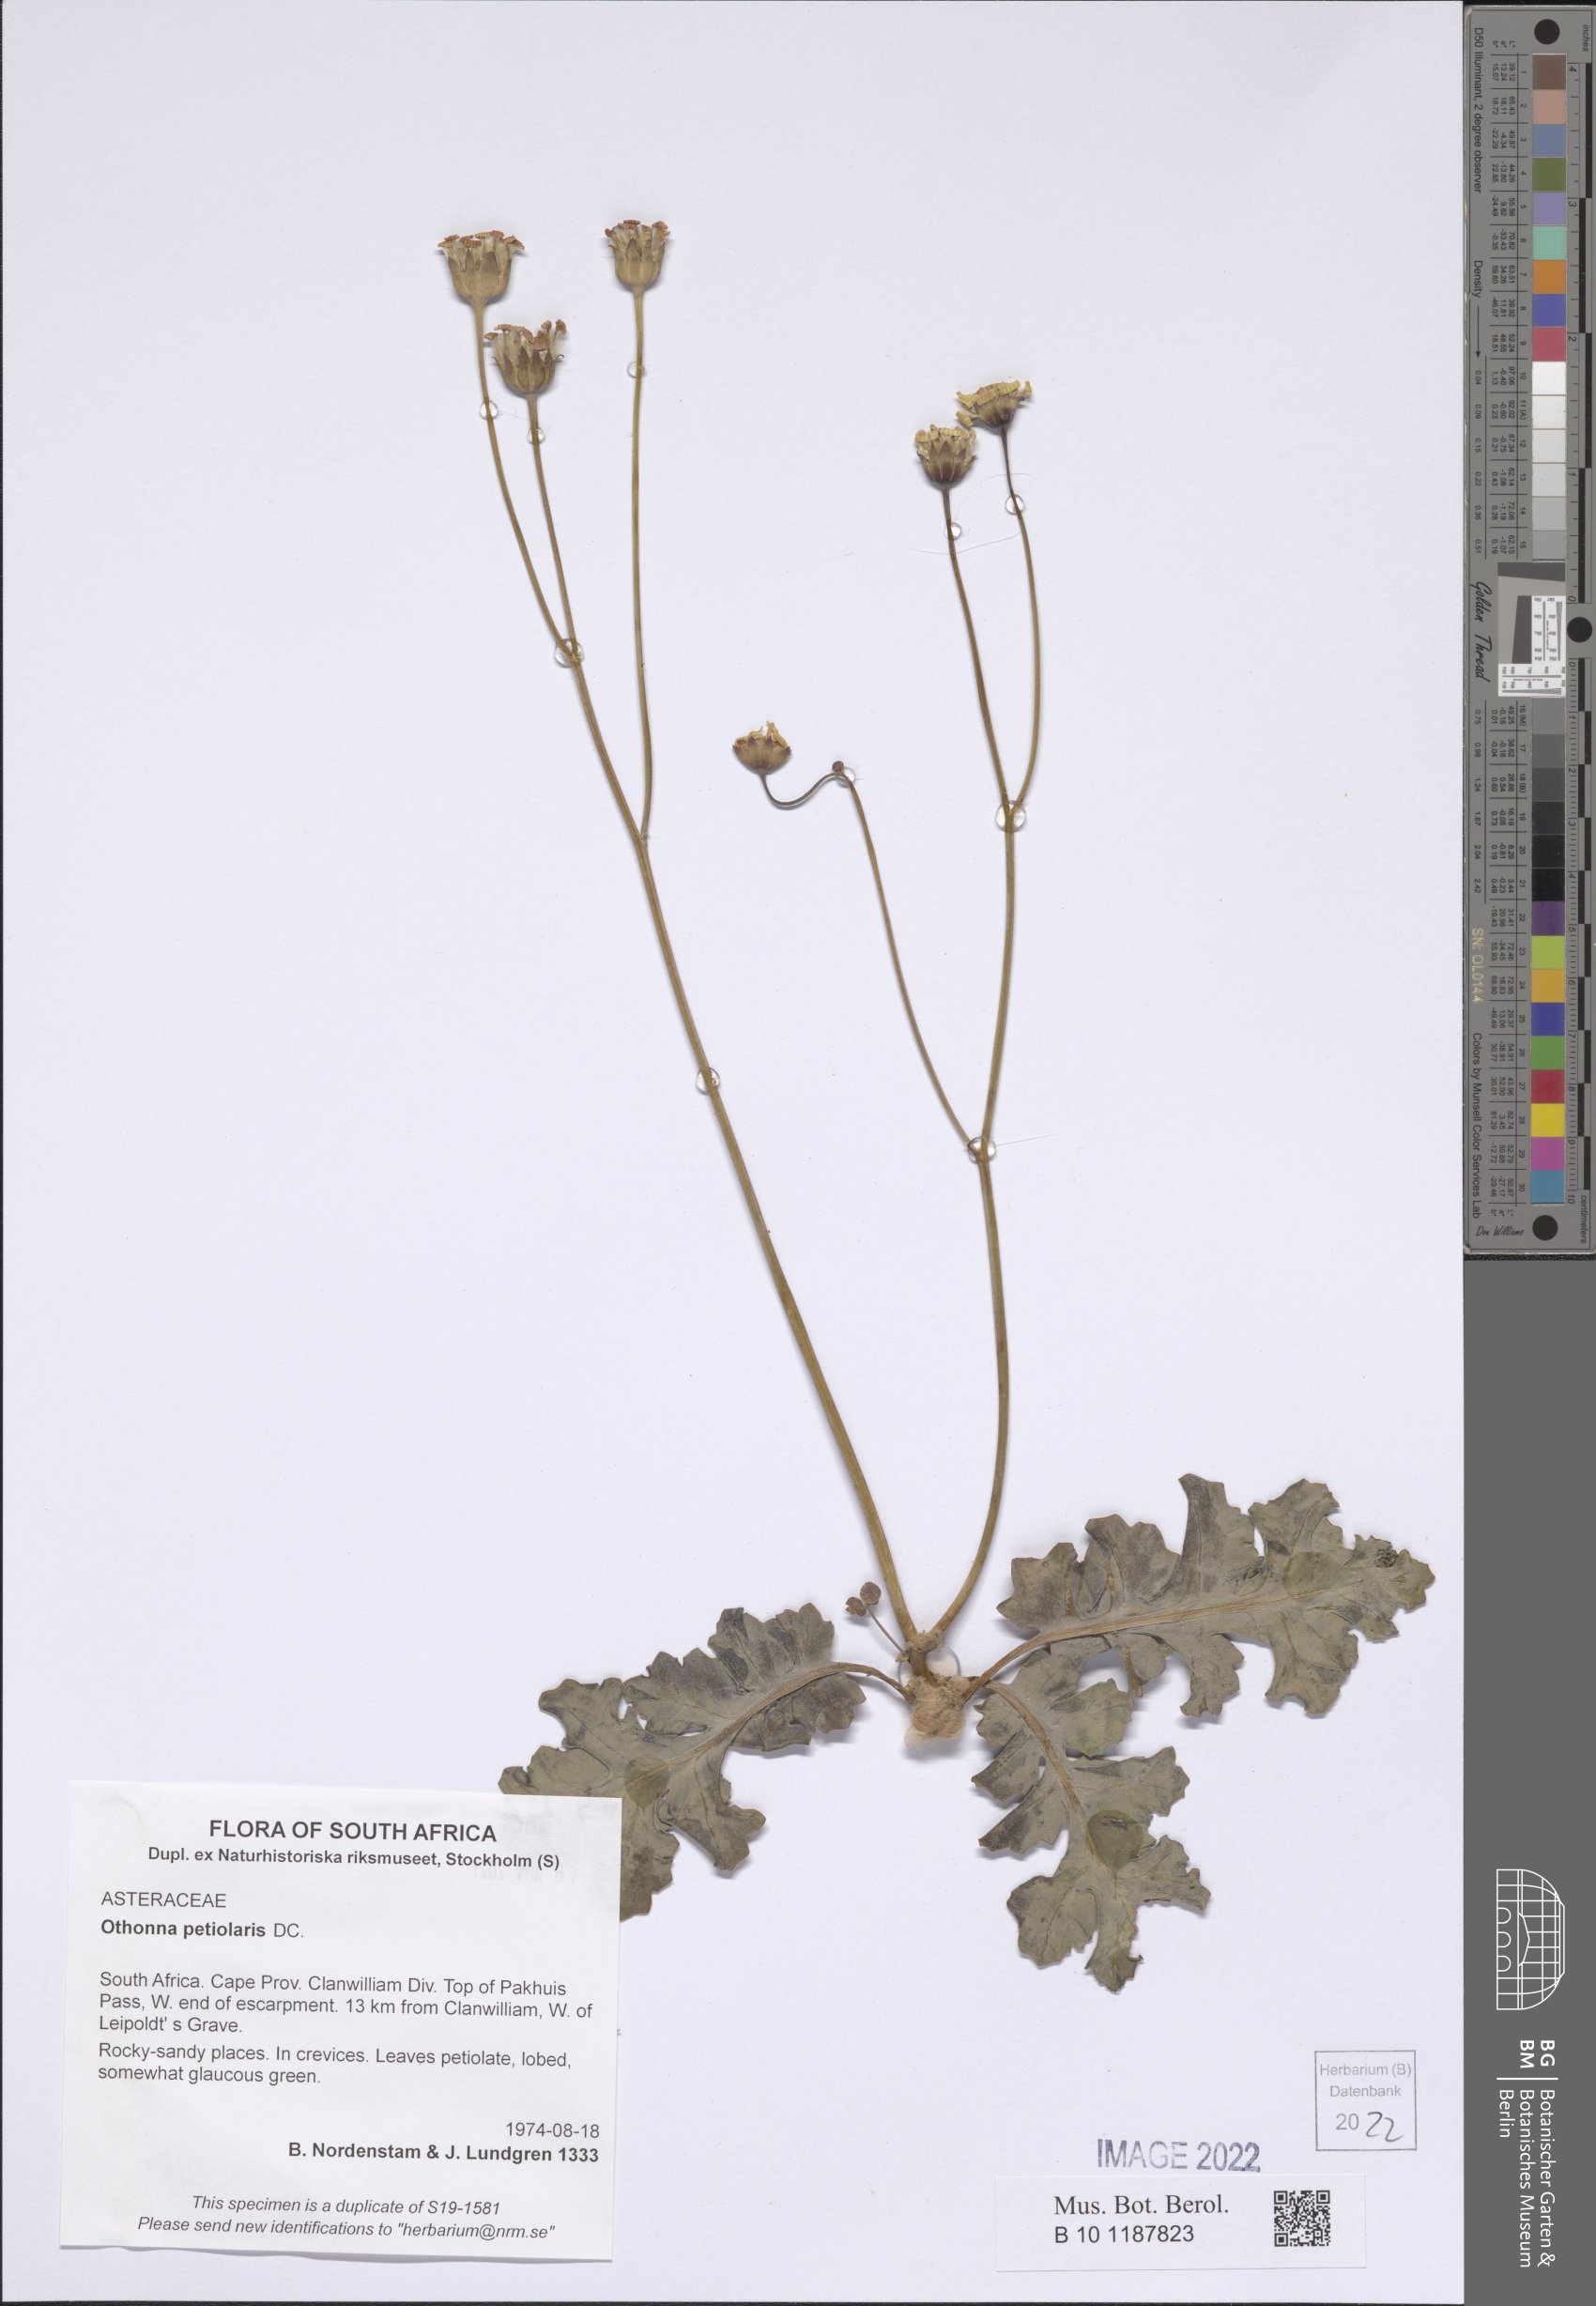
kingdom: Plantae
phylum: Tracheophyta
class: Magnoliopsida
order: Asterales
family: Asteraceae
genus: Othonna
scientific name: Othonna petiolaris
